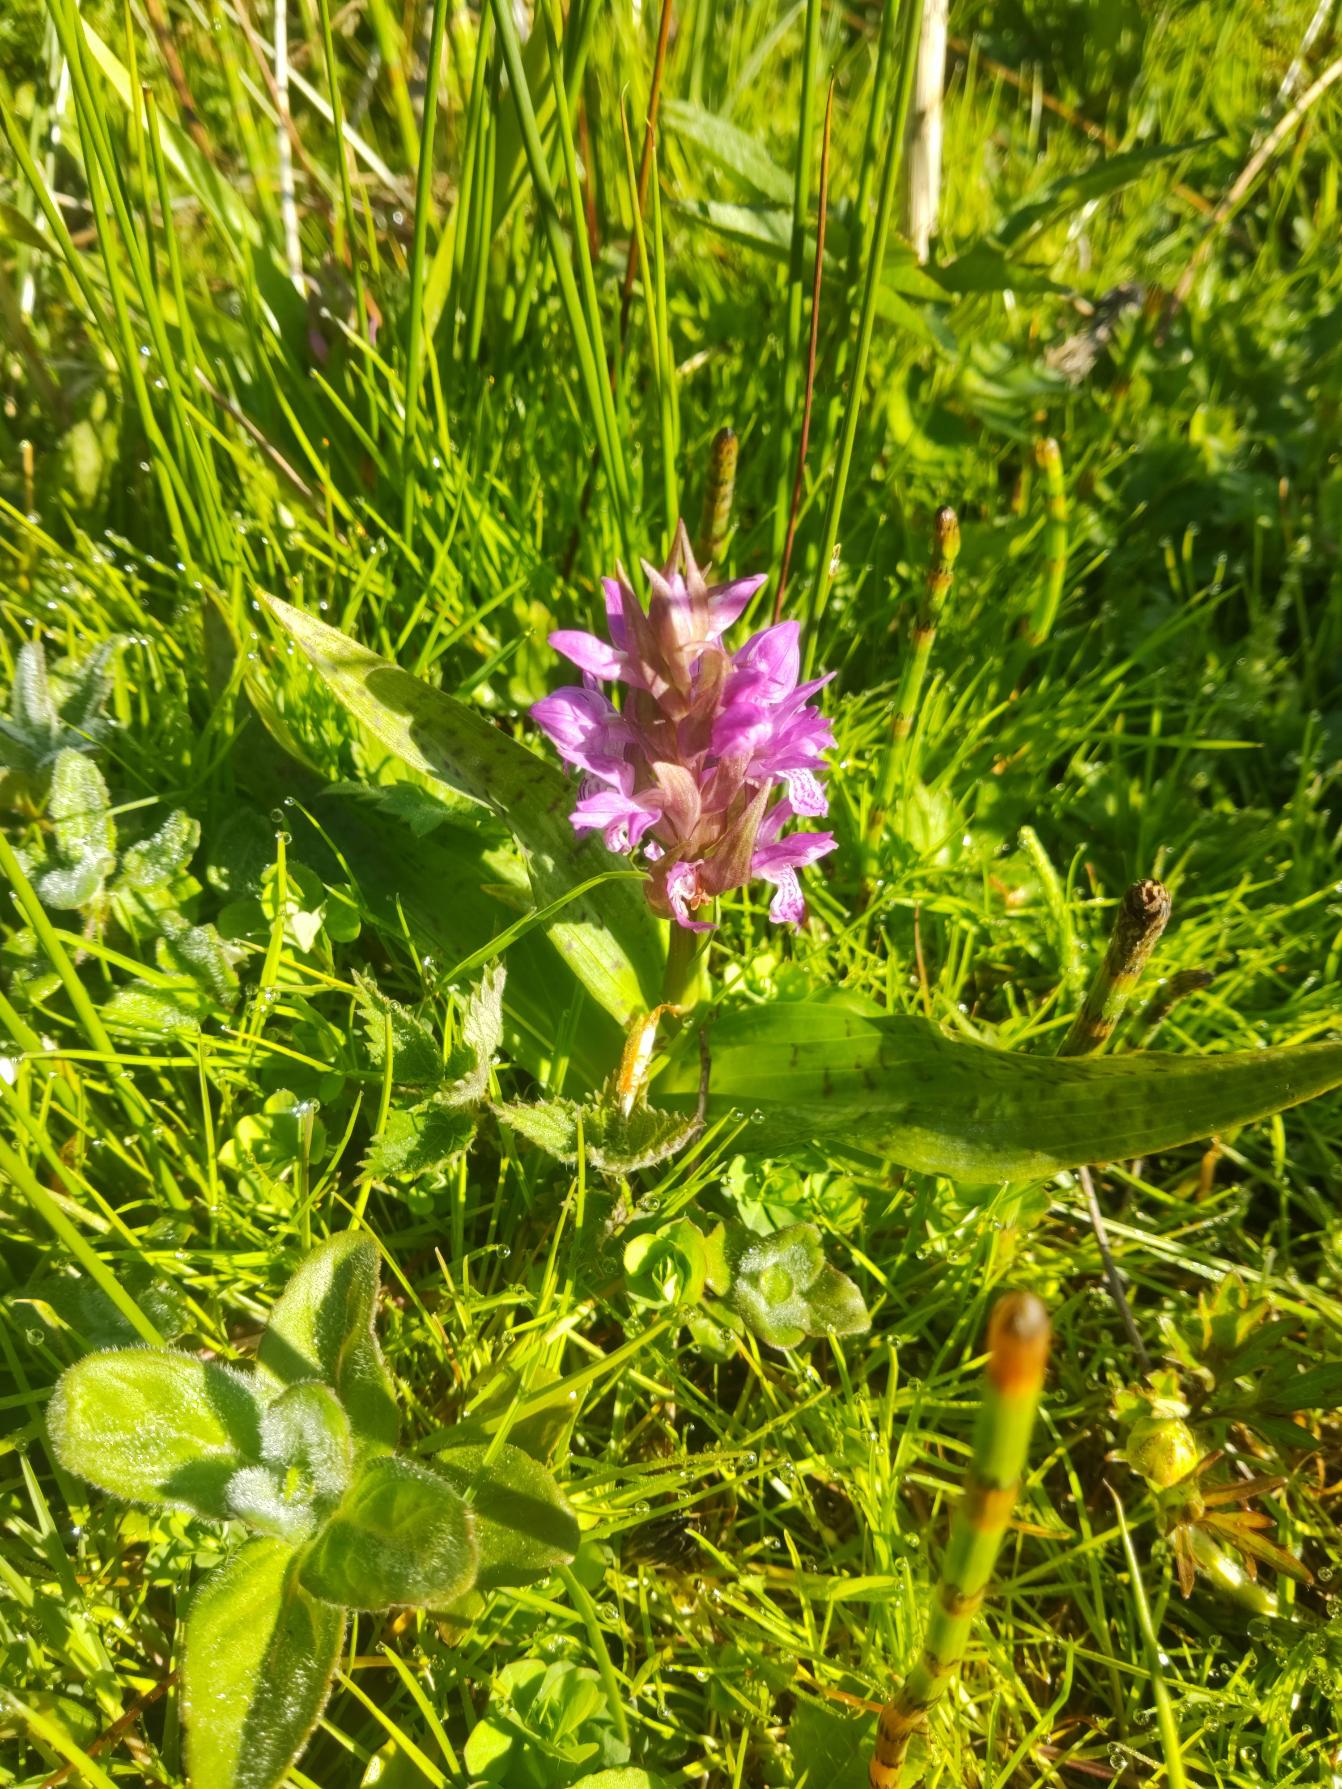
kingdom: Plantae
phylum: Tracheophyta
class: Liliopsida
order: Asparagales
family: Orchidaceae
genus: Dactylorhiza
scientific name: Dactylorhiza majalis
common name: Maj-gøgeurt
